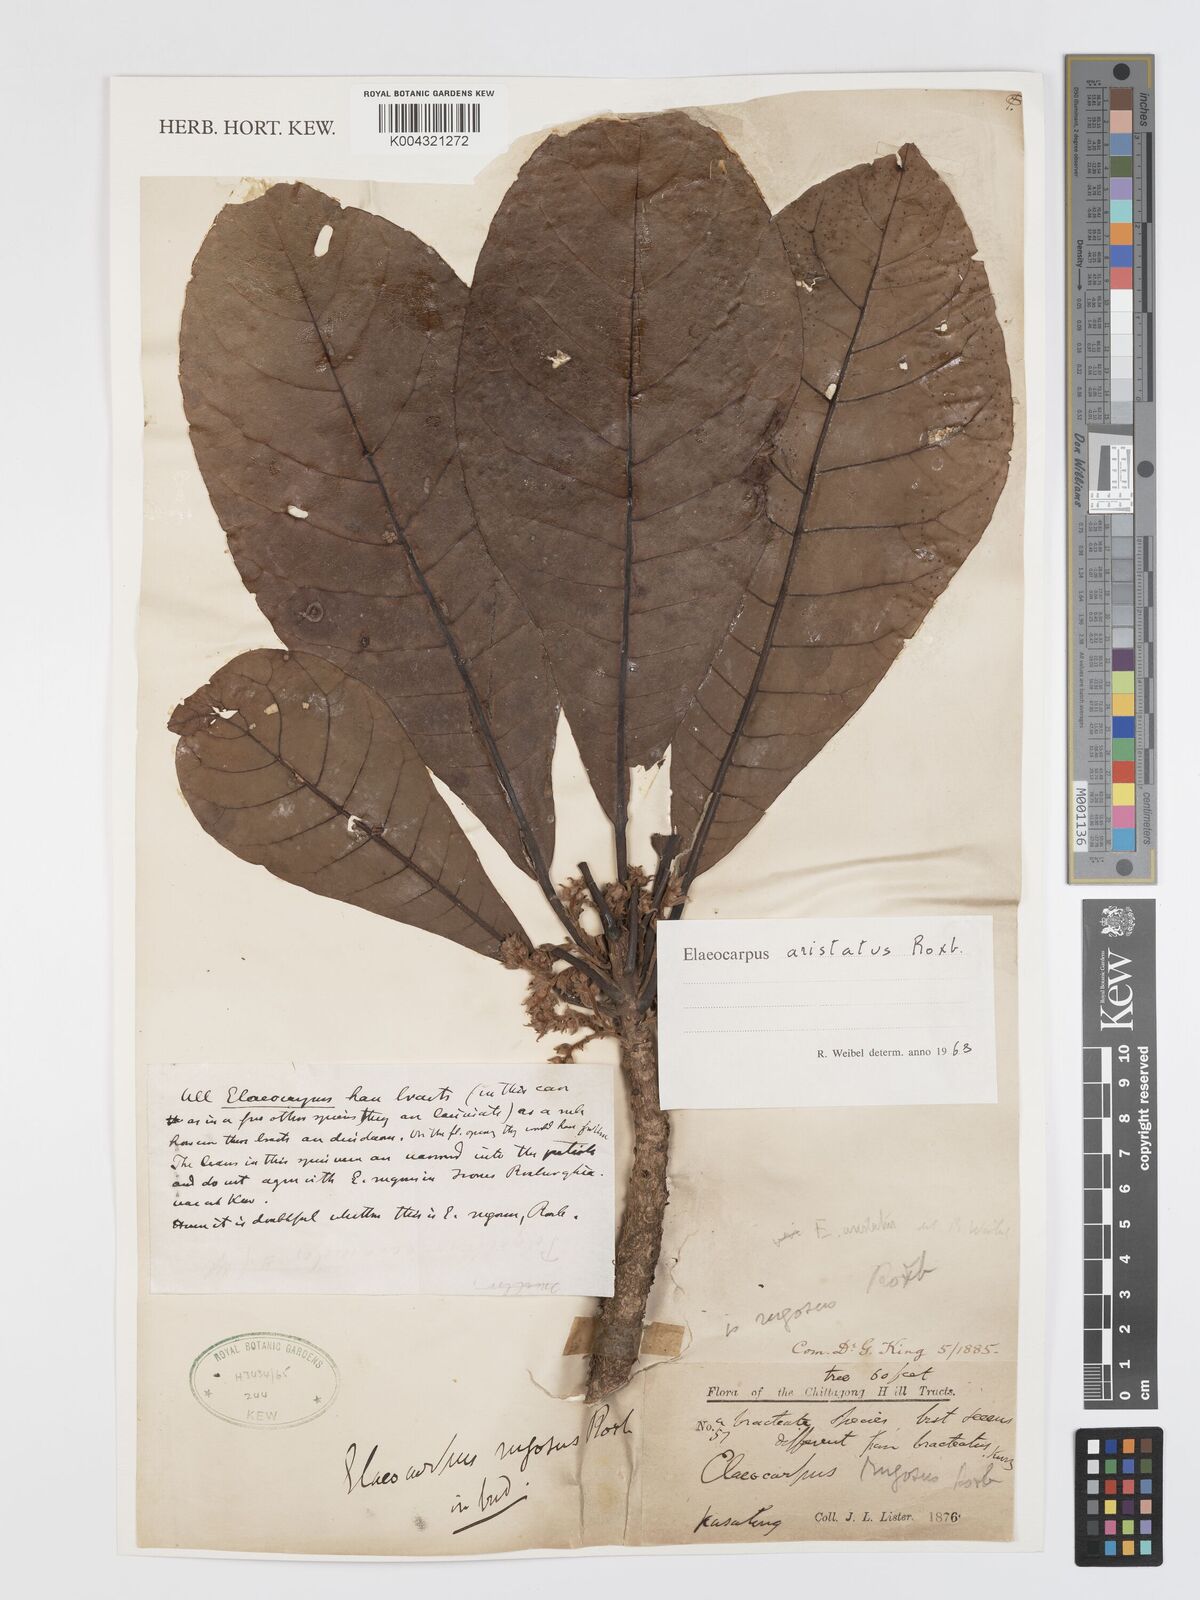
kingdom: Plantae
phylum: Tracheophyta
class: Magnoliopsida
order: Oxalidales
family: Elaeocarpaceae
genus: Elaeocarpus
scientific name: Elaeocarpus aristatus
